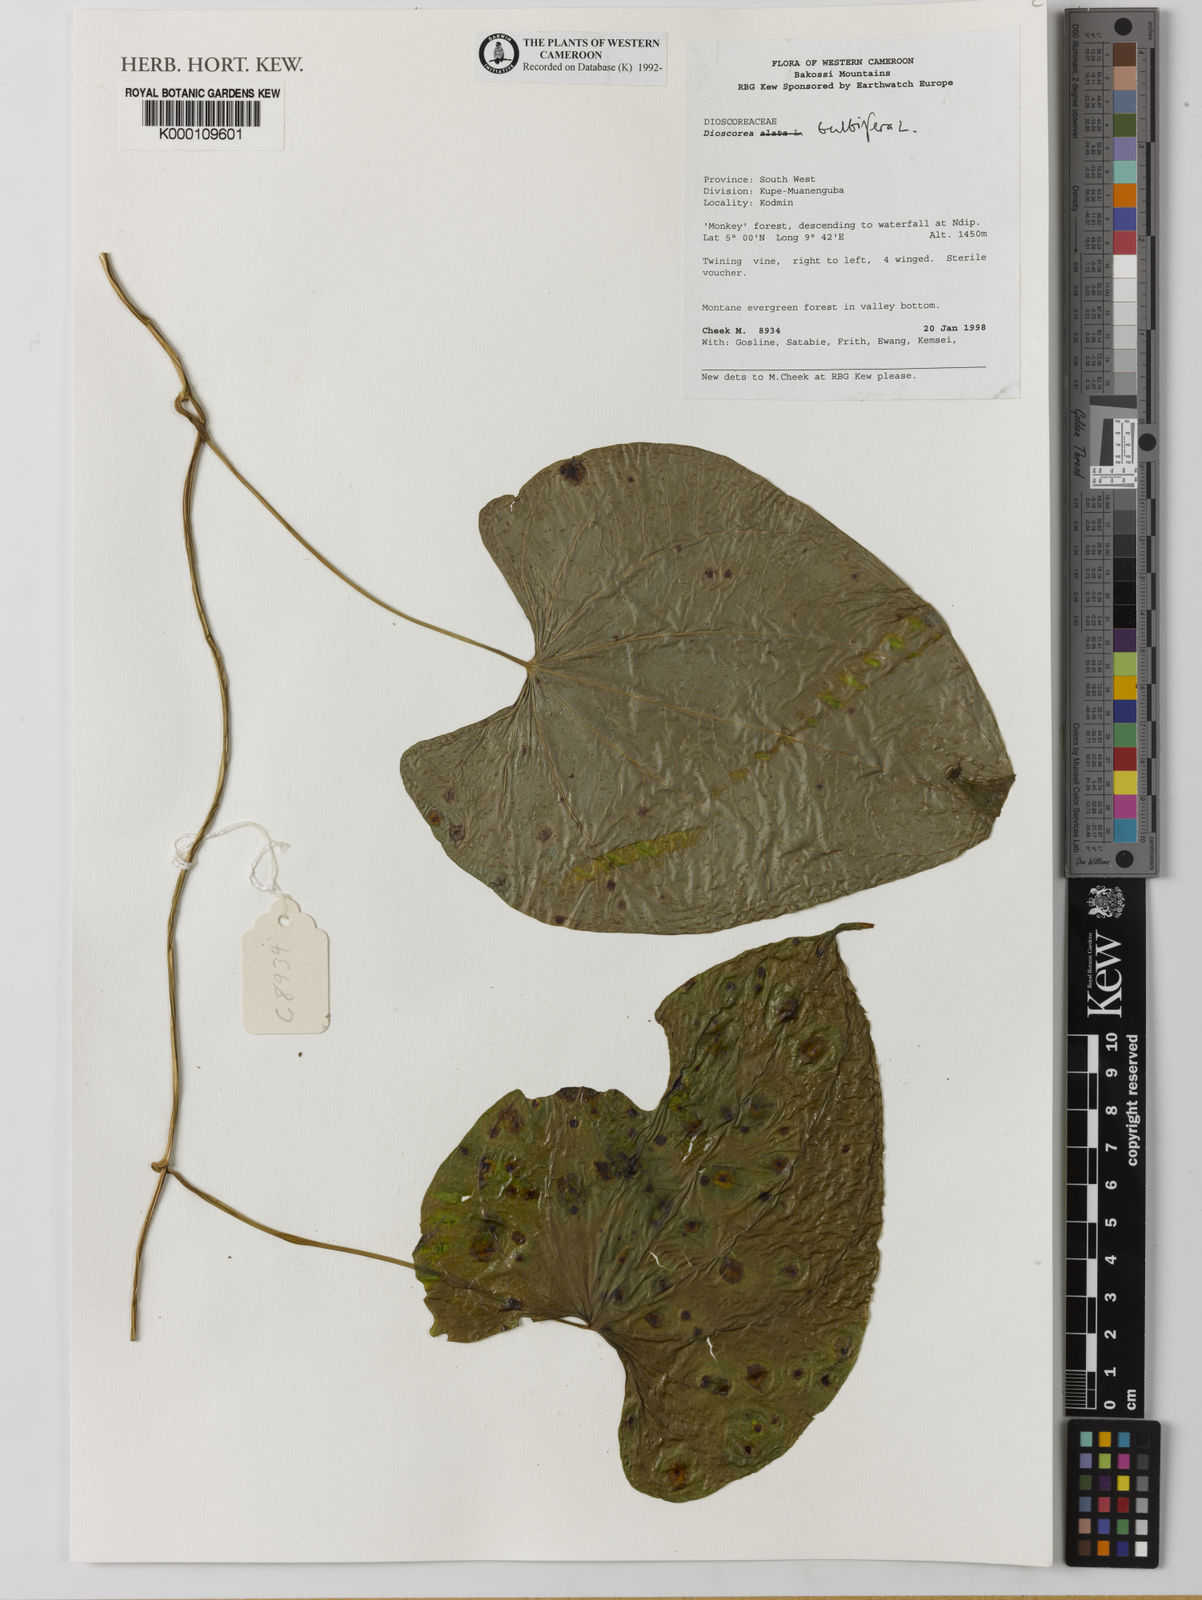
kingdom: Plantae
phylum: Tracheophyta
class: Liliopsida
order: Dioscoreales
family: Dioscoreaceae
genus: Dioscorea
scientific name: Dioscorea bulbifera
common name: Air yam
